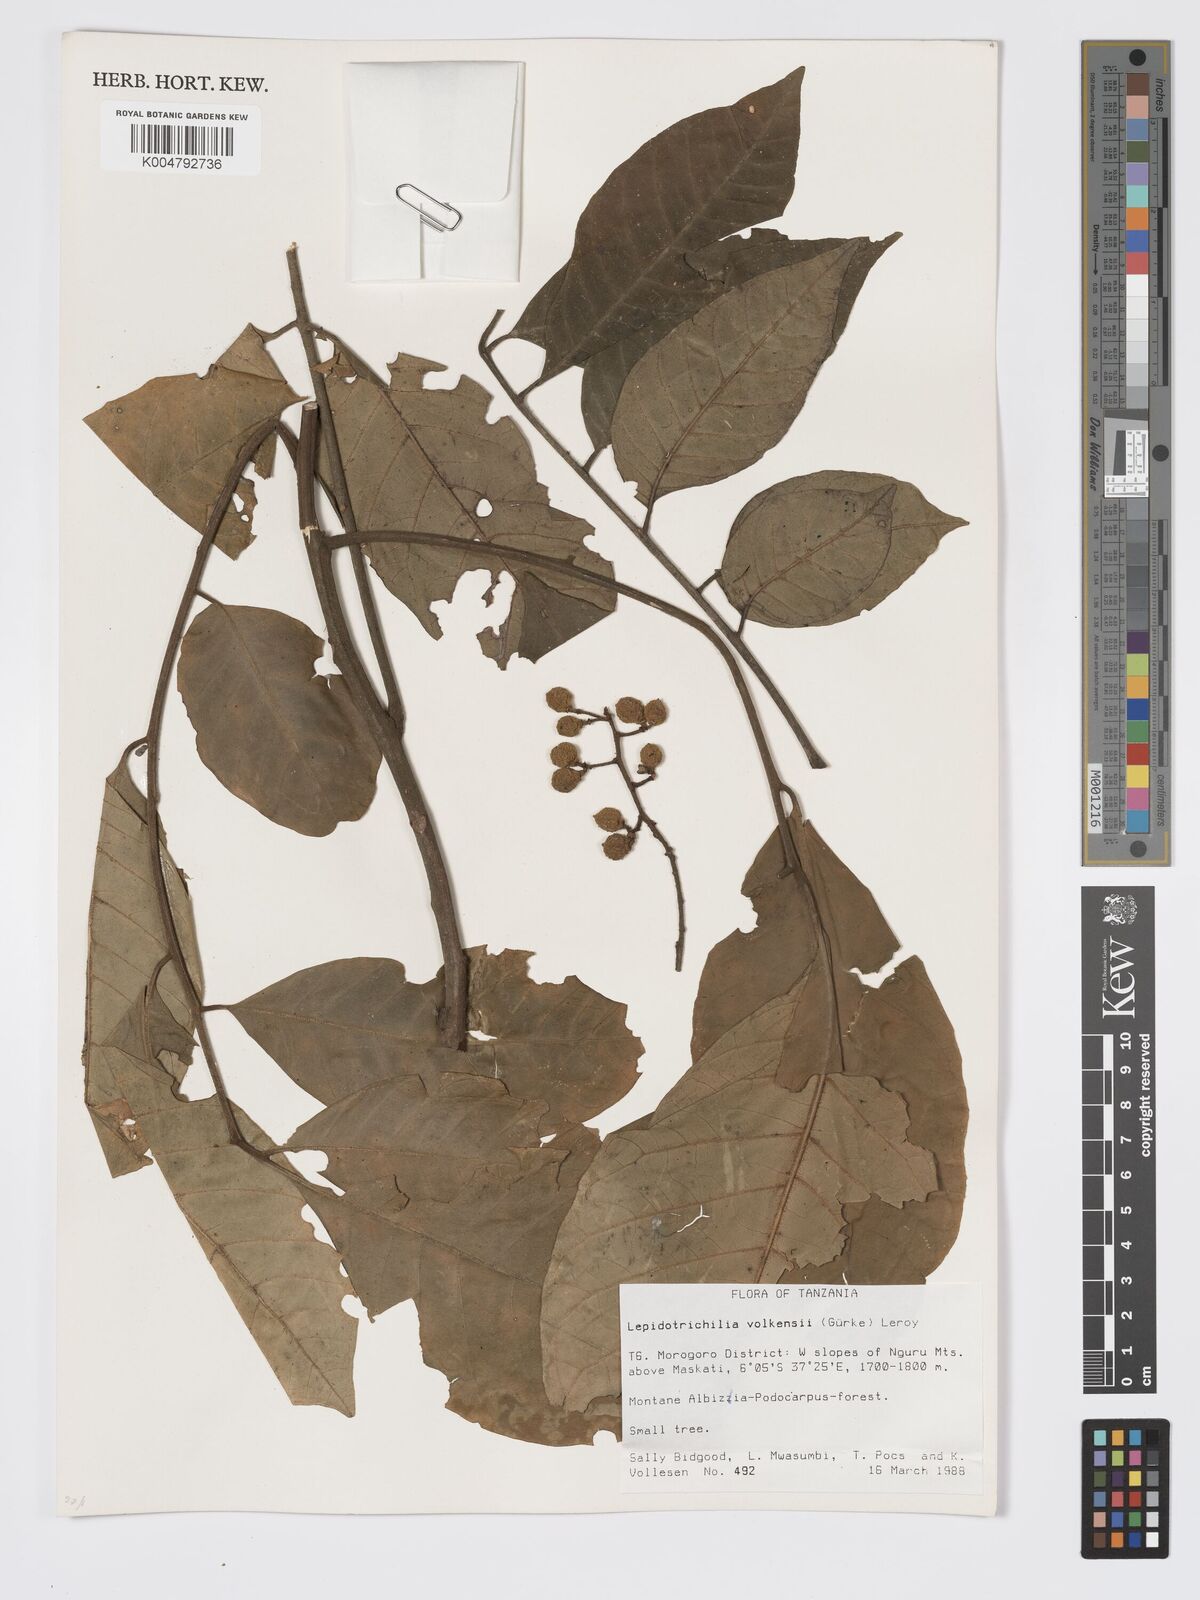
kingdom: Plantae
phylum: Tracheophyta
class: Magnoliopsida
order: Sapindales
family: Meliaceae
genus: Lepidotrichilia
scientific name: Lepidotrichilia volkensii
